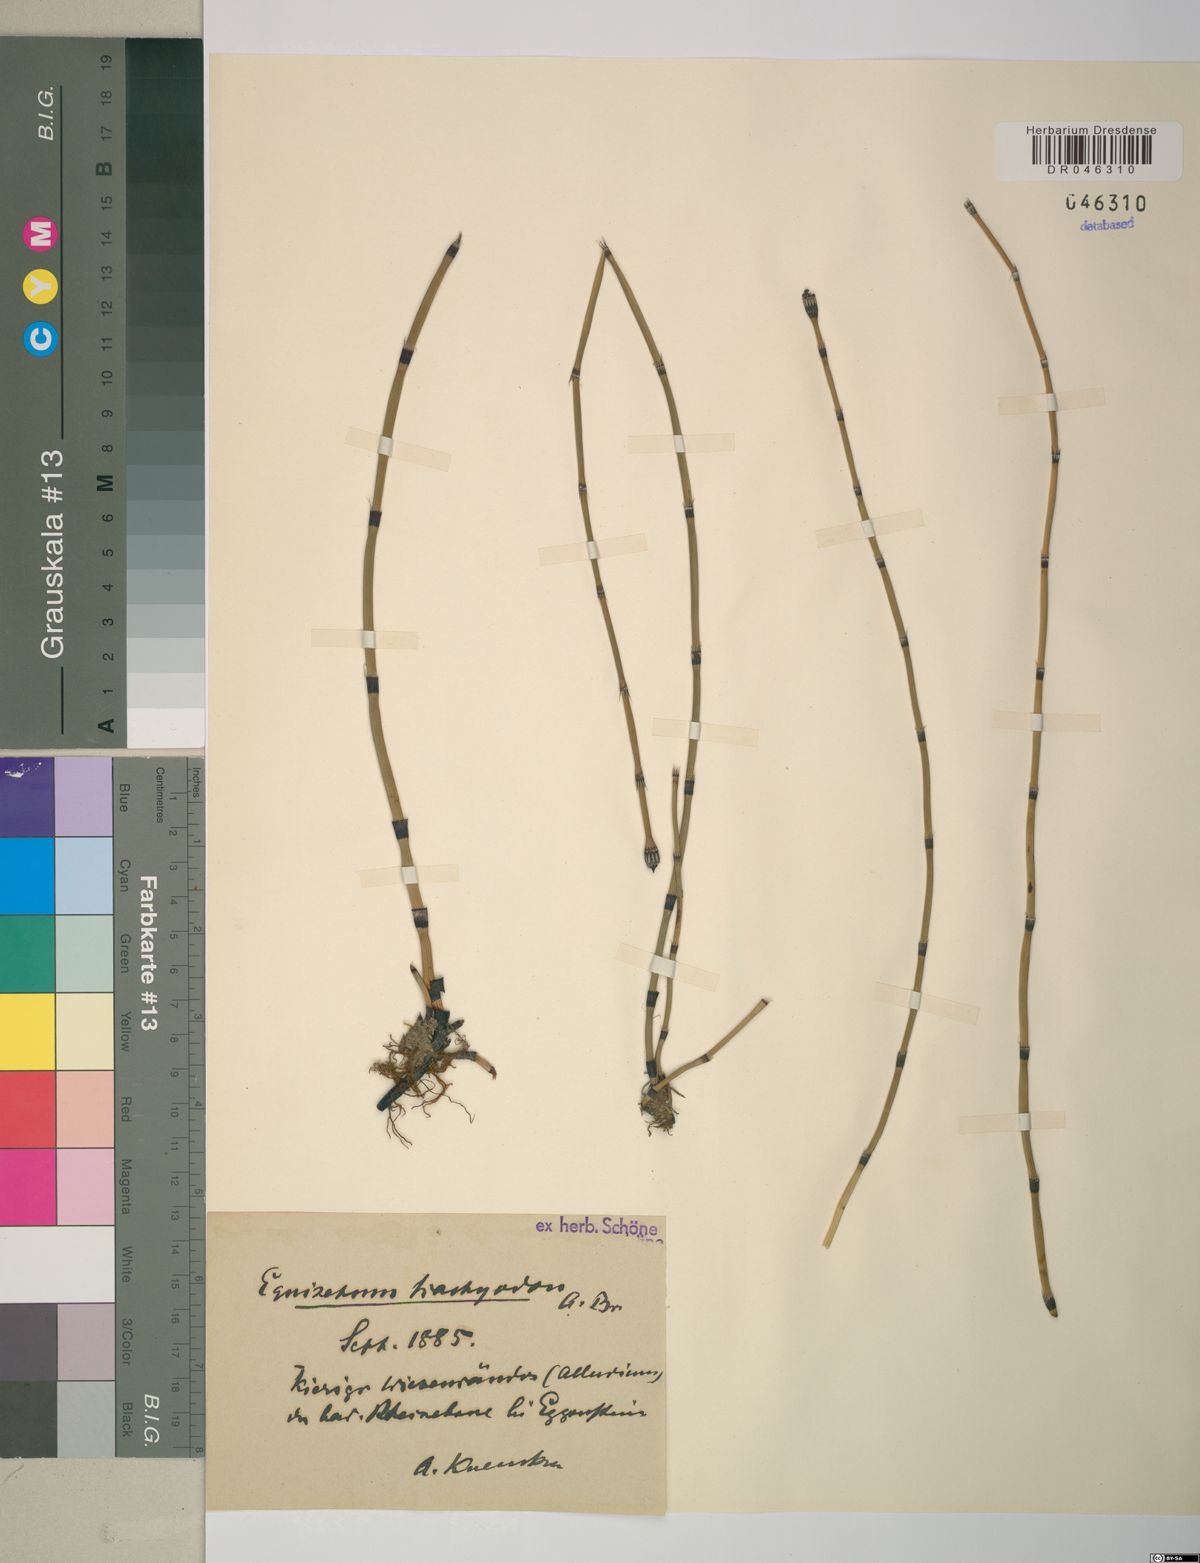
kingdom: Plantae
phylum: Tracheophyta
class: Polypodiopsida
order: Equisetales
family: Equisetaceae
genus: Equisetum
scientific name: Equisetum trachyodon
